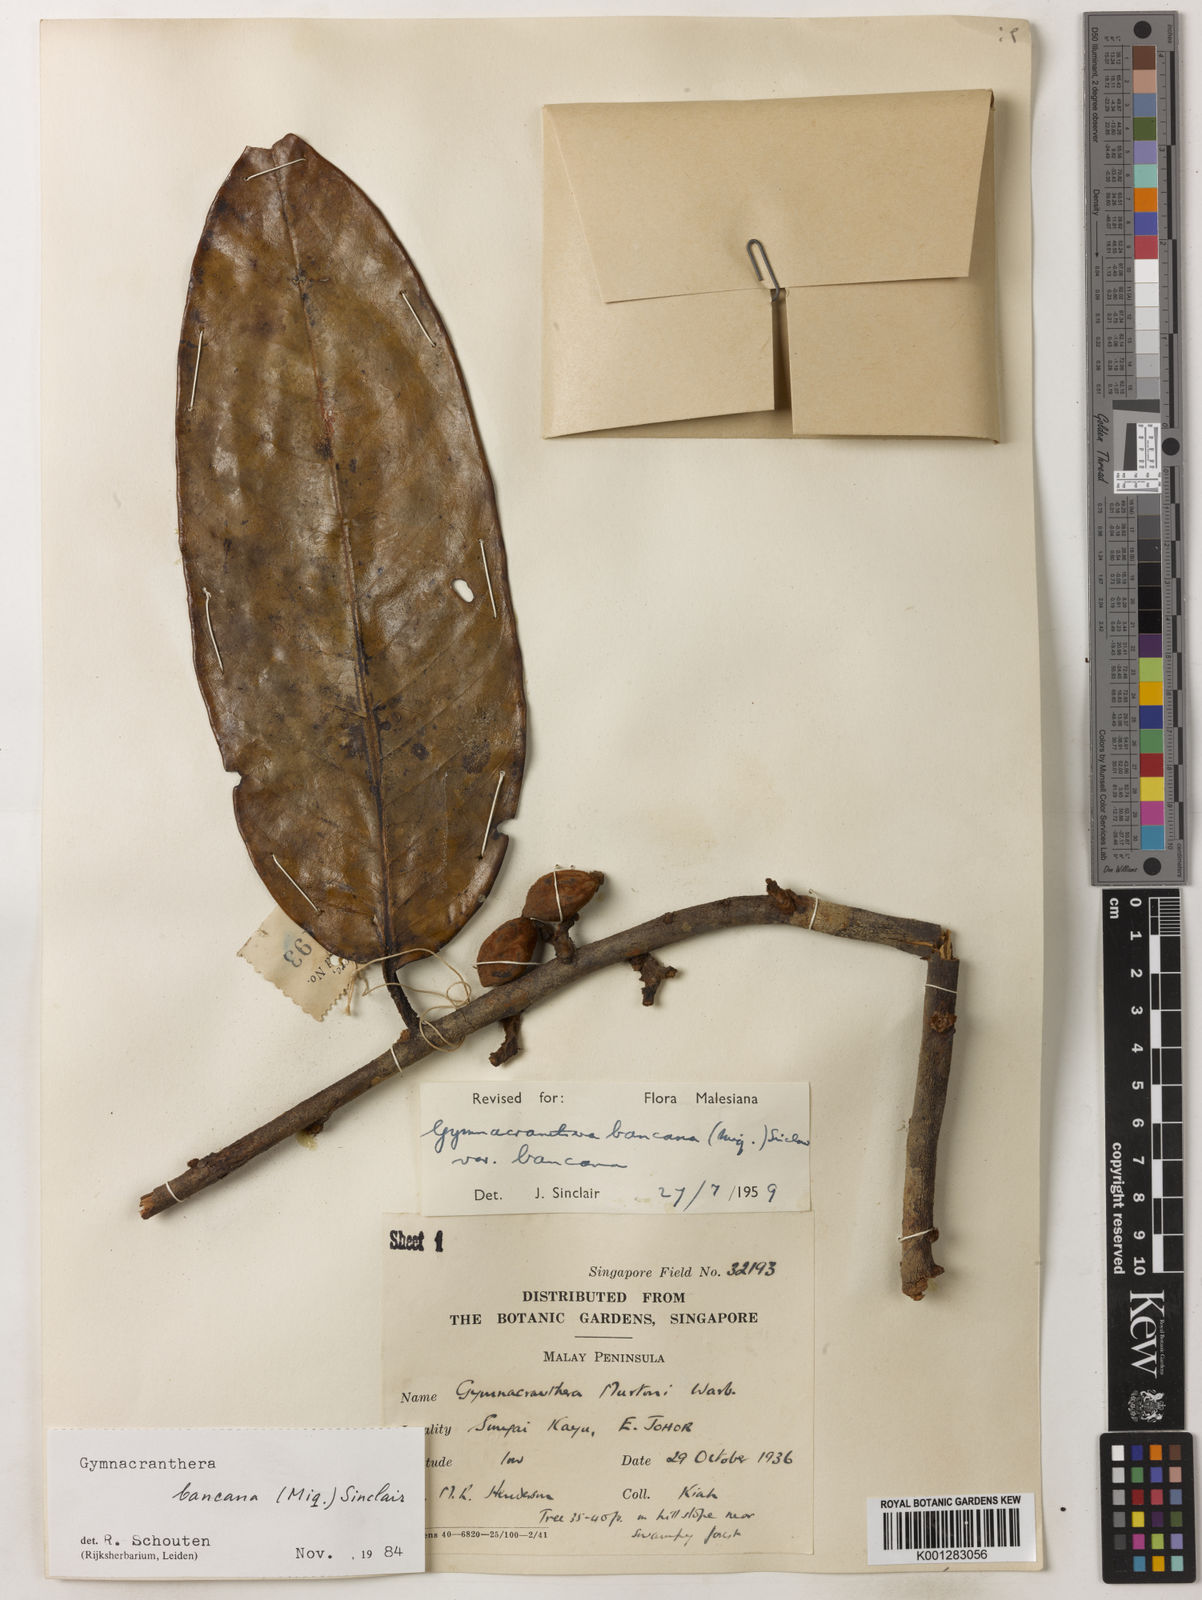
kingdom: Plantae
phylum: Tracheophyta
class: Magnoliopsida
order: Magnoliales
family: Myristicaceae
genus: Gymnacranthera
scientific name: Gymnacranthera bancana
